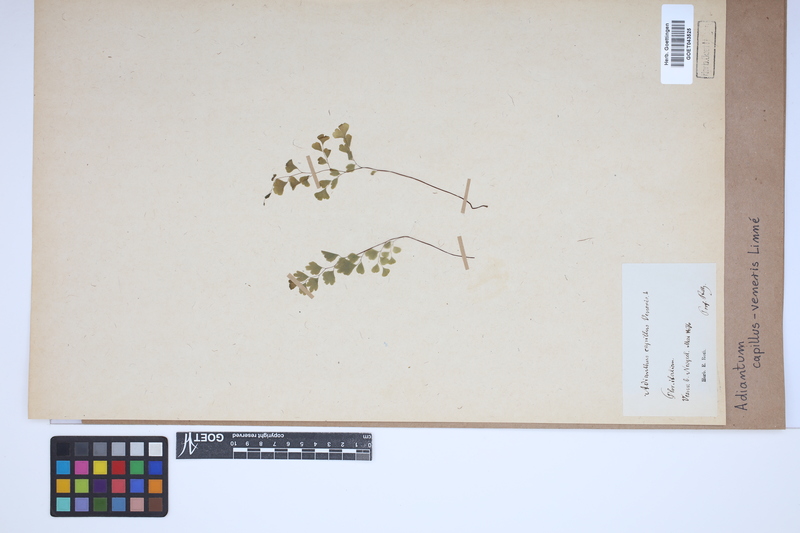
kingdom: Plantae
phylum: Tracheophyta
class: Polypodiopsida
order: Polypodiales
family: Pteridaceae
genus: Adiantum
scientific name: Adiantum capillus-veneris
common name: Maidenhair fern
